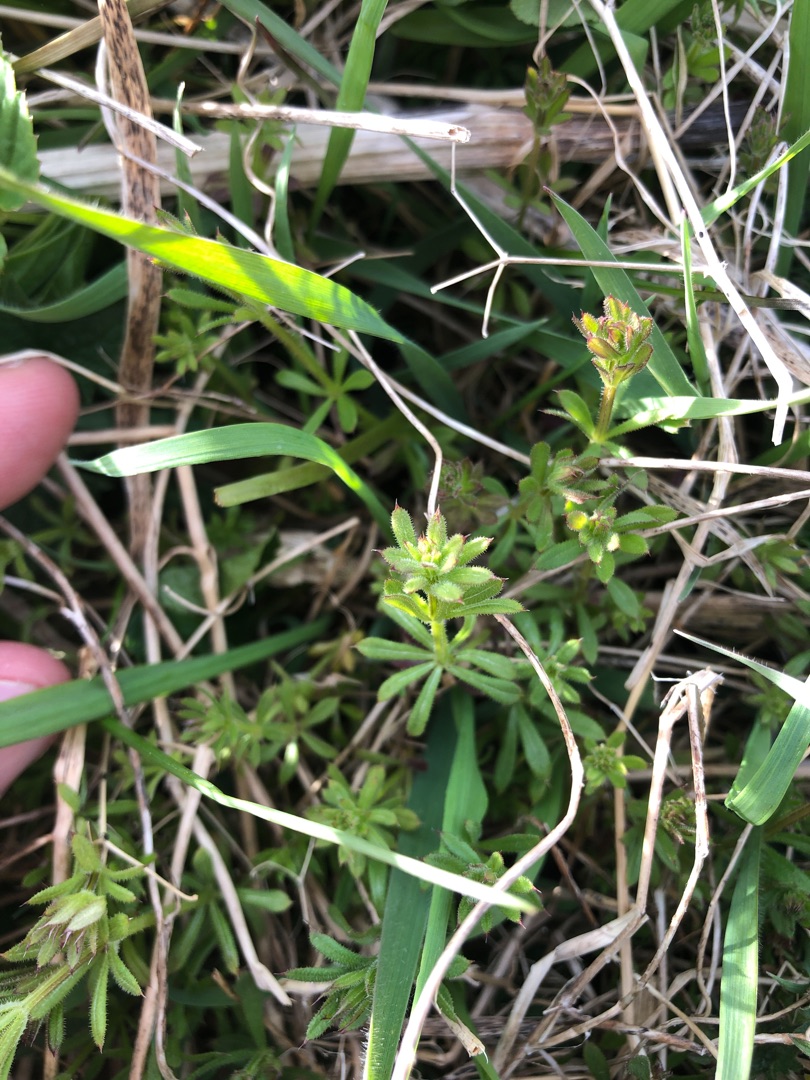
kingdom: Plantae
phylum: Tracheophyta
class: Magnoliopsida
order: Gentianales
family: Rubiaceae
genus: Galium
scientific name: Galium aparine
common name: Burre-snerre
